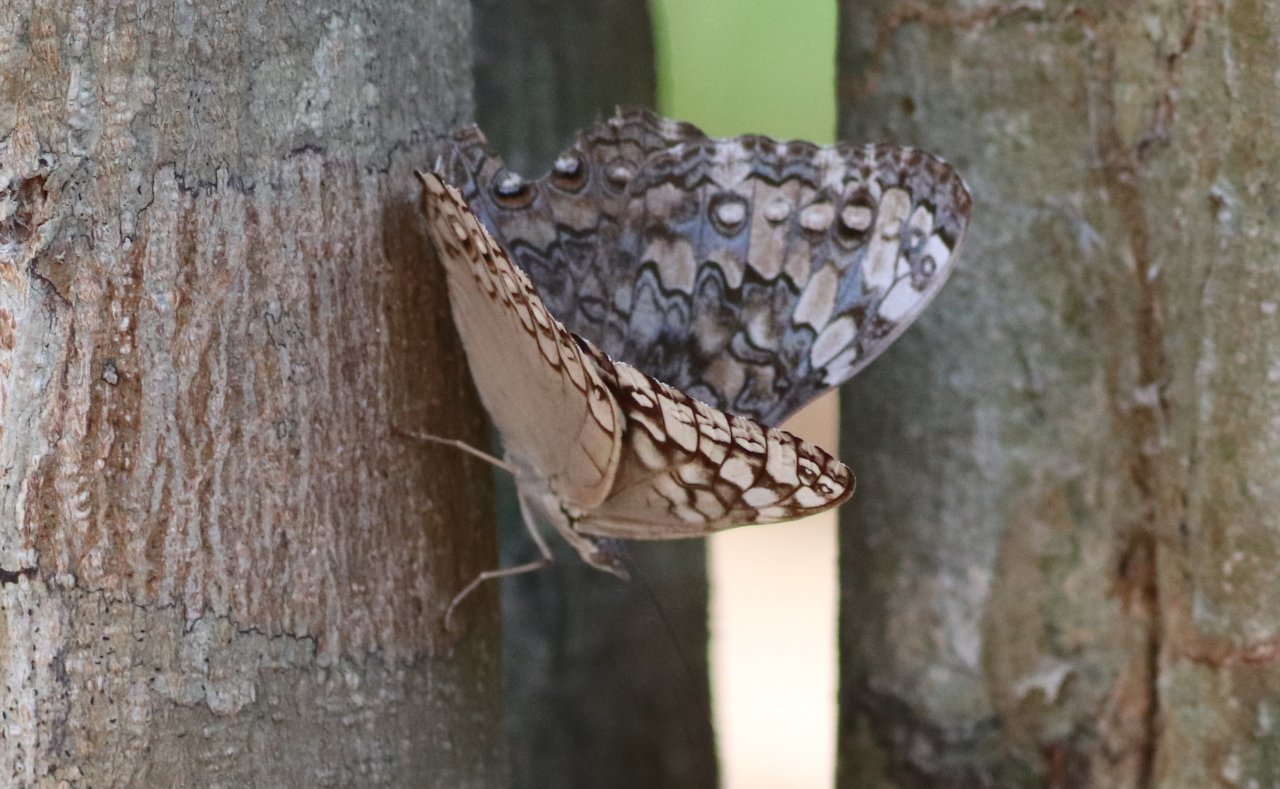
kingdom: Animalia
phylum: Arthropoda
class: Insecta
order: Lepidoptera
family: Nymphalidae
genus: Hamadryas
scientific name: Hamadryas februa
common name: Gray Cracker
